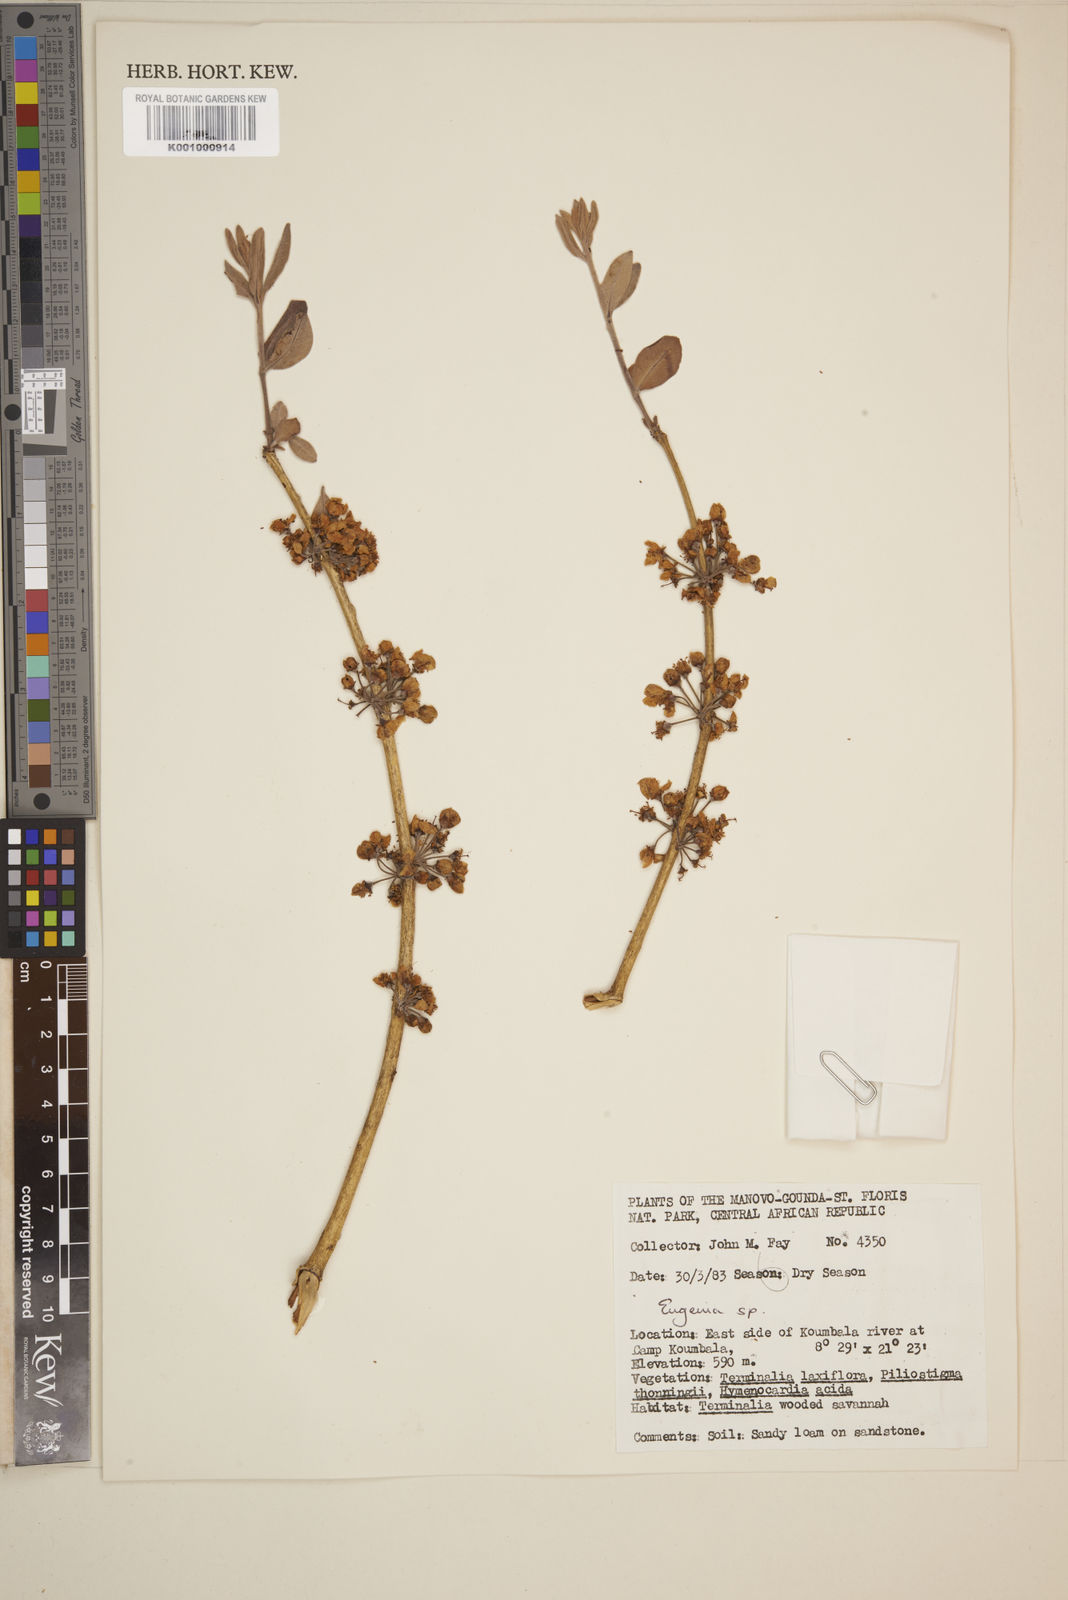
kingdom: Plantae
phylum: Tracheophyta
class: Magnoliopsida
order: Myrtales
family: Myrtaceae
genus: Eugenia
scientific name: Eugenia
